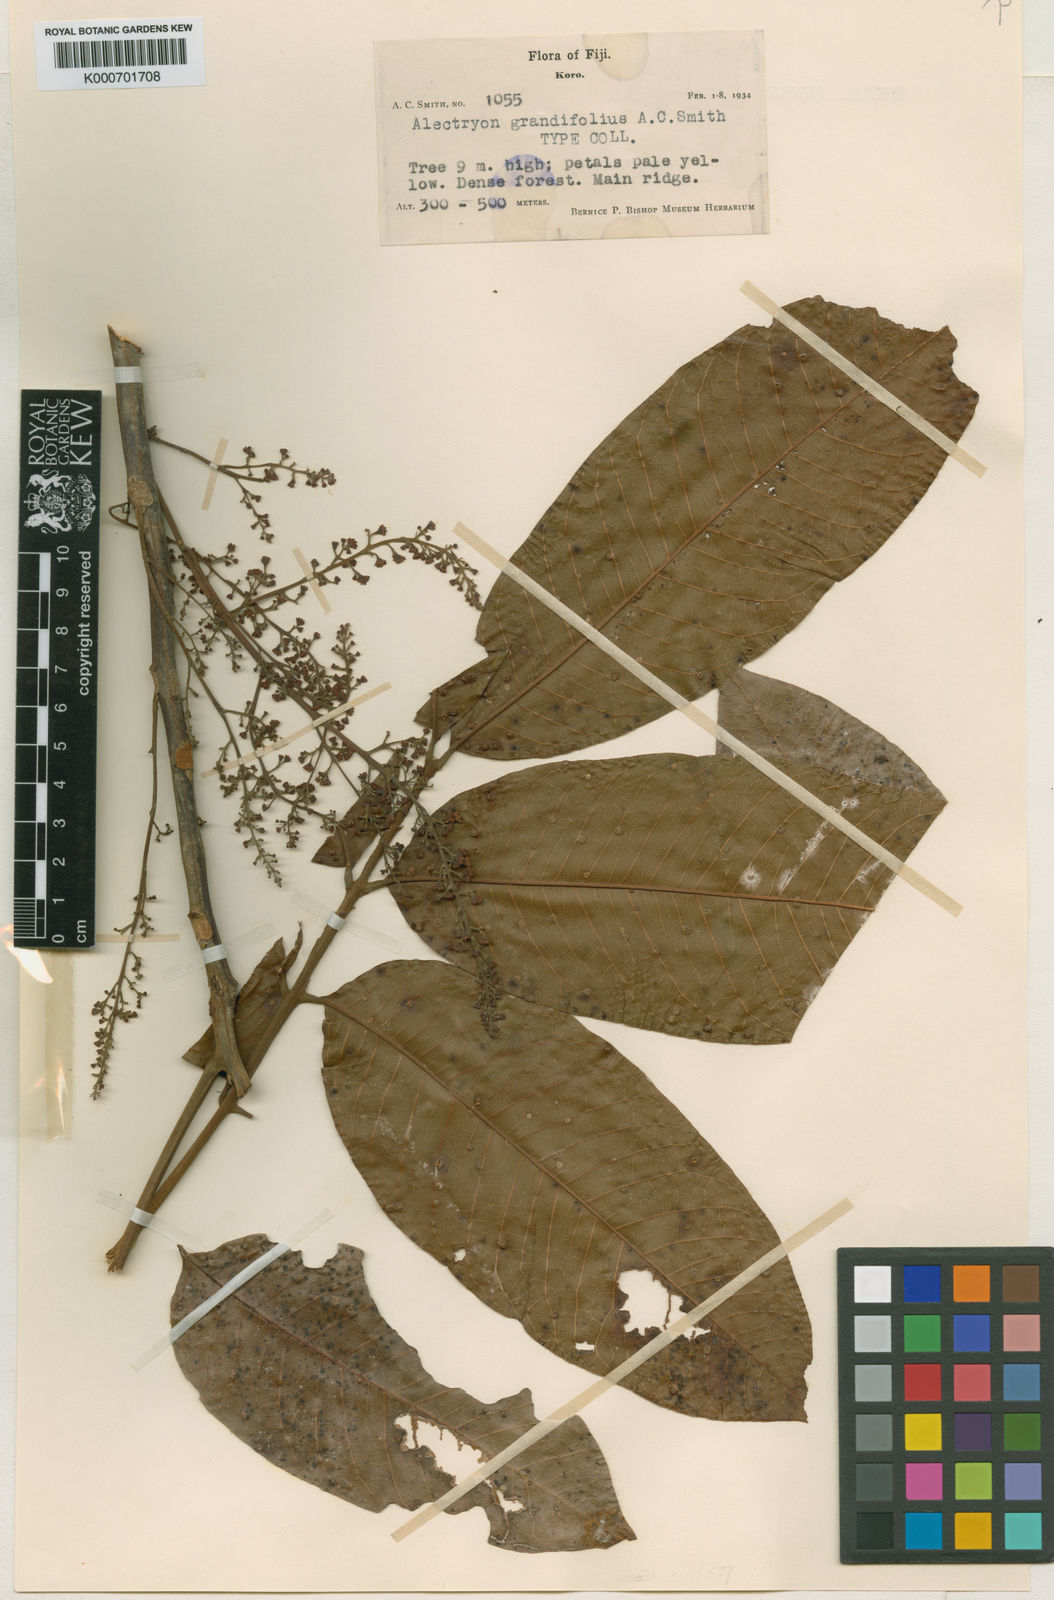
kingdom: Plantae
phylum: Tracheophyta
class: Magnoliopsida
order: Sapindales
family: Sapindaceae
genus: Alectryon
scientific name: Alectryon grandifolius
